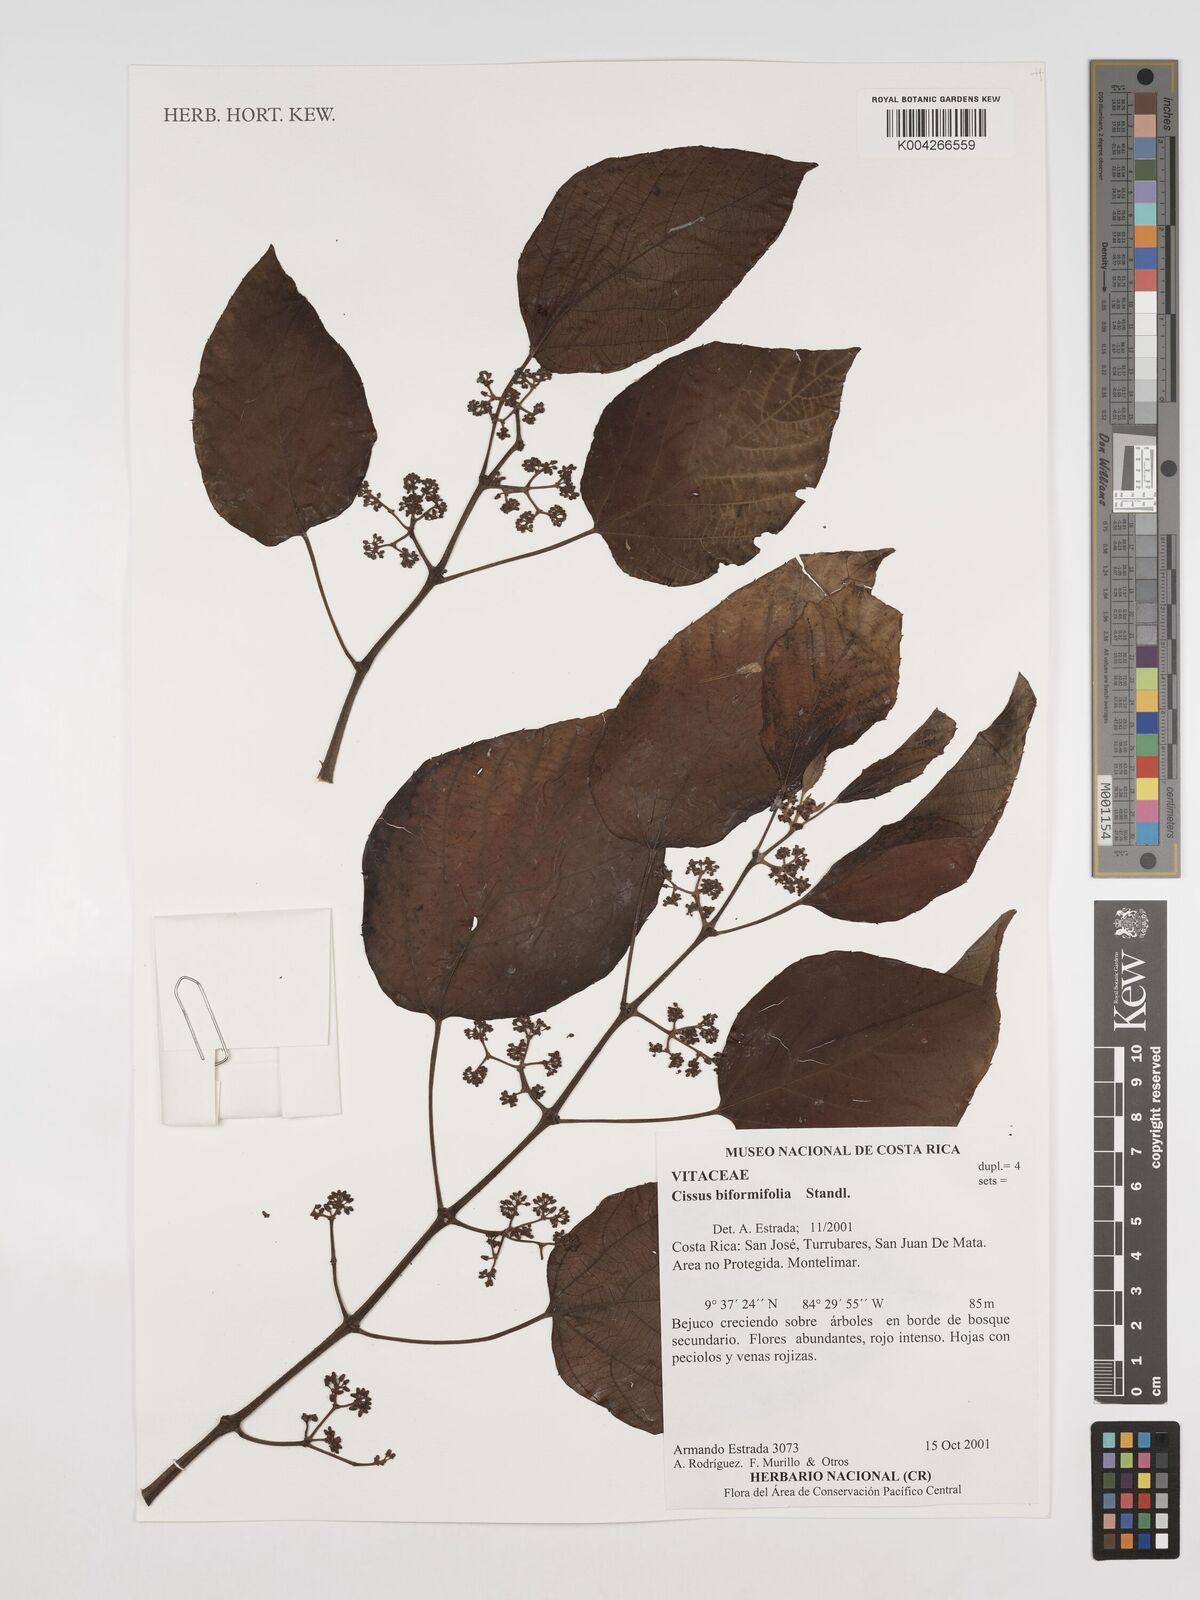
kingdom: Plantae
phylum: Tracheophyta
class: Magnoliopsida
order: Vitales
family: Vitaceae
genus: Cissus
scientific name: Cissus biformifolia
